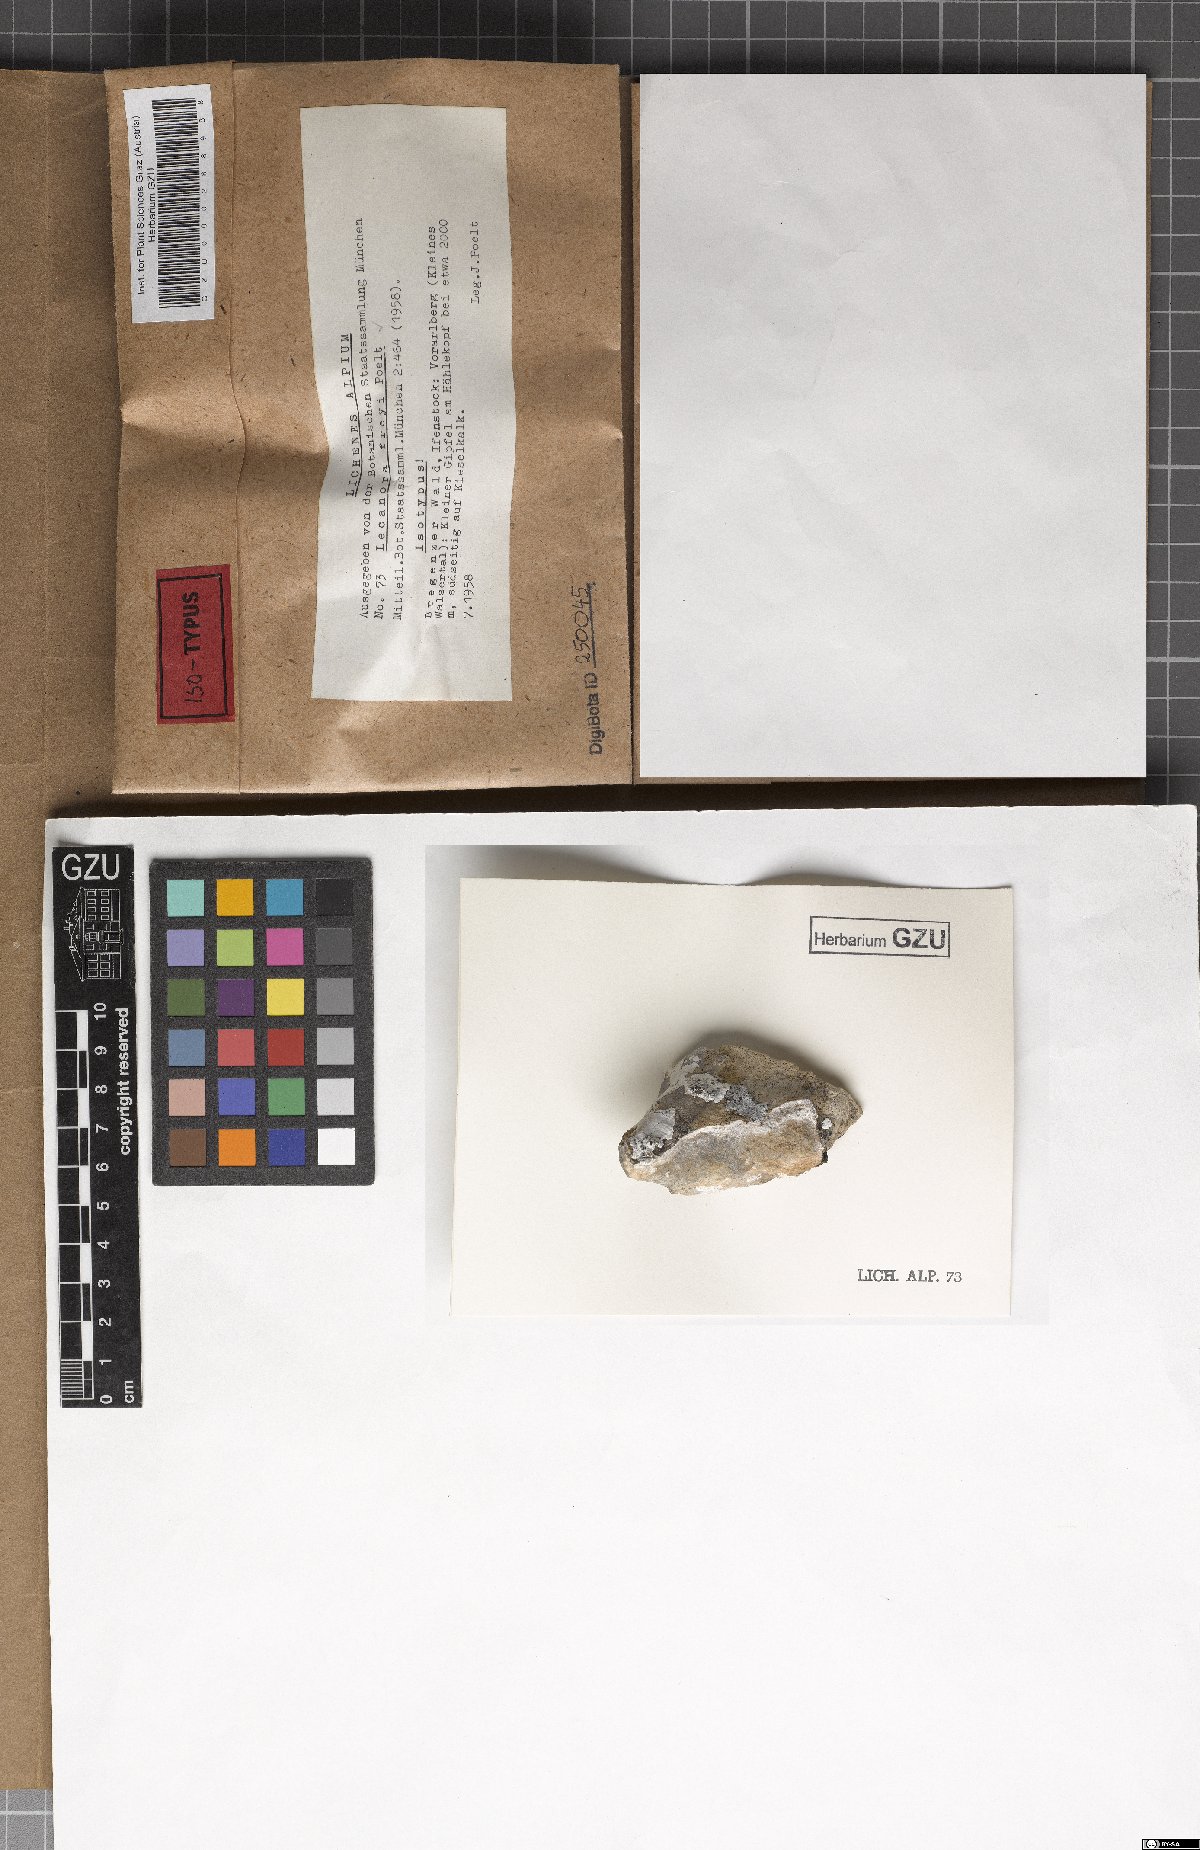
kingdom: Fungi
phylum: Ascomycota
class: Lecanoromycetes
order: Lecanorales
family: Lecanoraceae
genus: Lecanora
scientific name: Lecanora freyi
